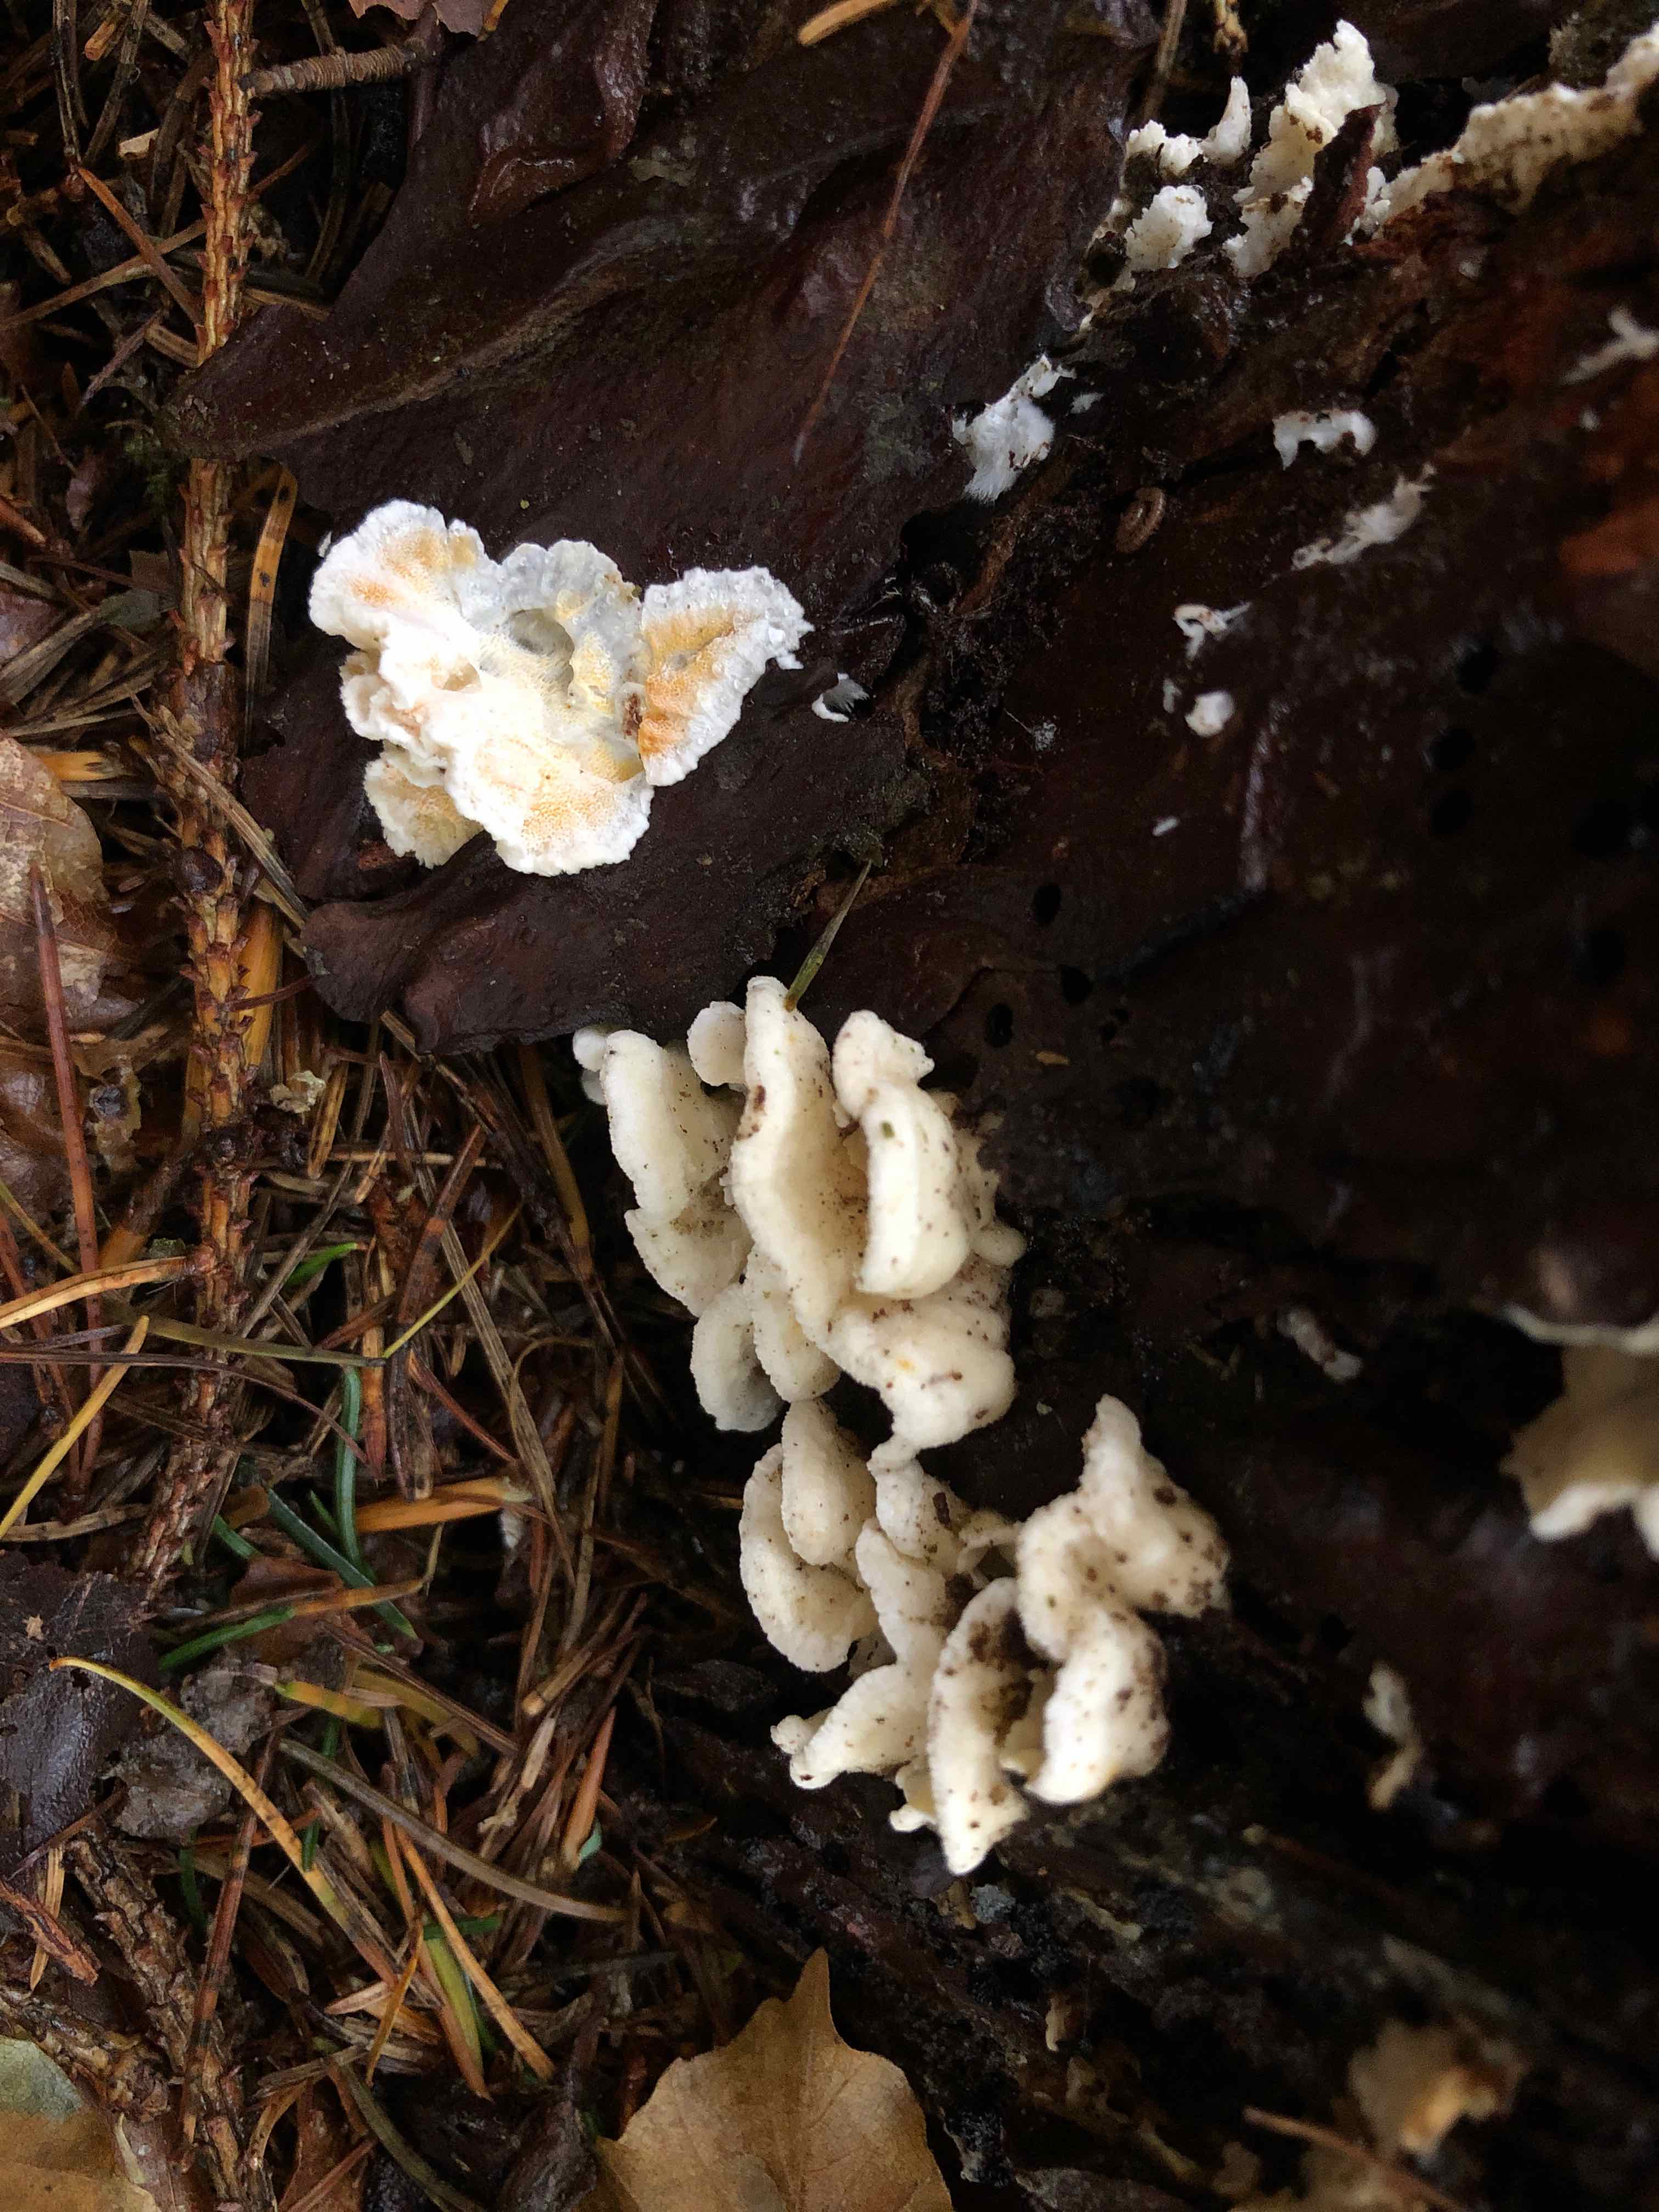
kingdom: Fungi
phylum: Basidiomycota
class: Agaricomycetes
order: Polyporales
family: Incrustoporiaceae
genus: Skeletocutis
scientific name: Skeletocutis amorpha
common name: orange krystalporesvamp
